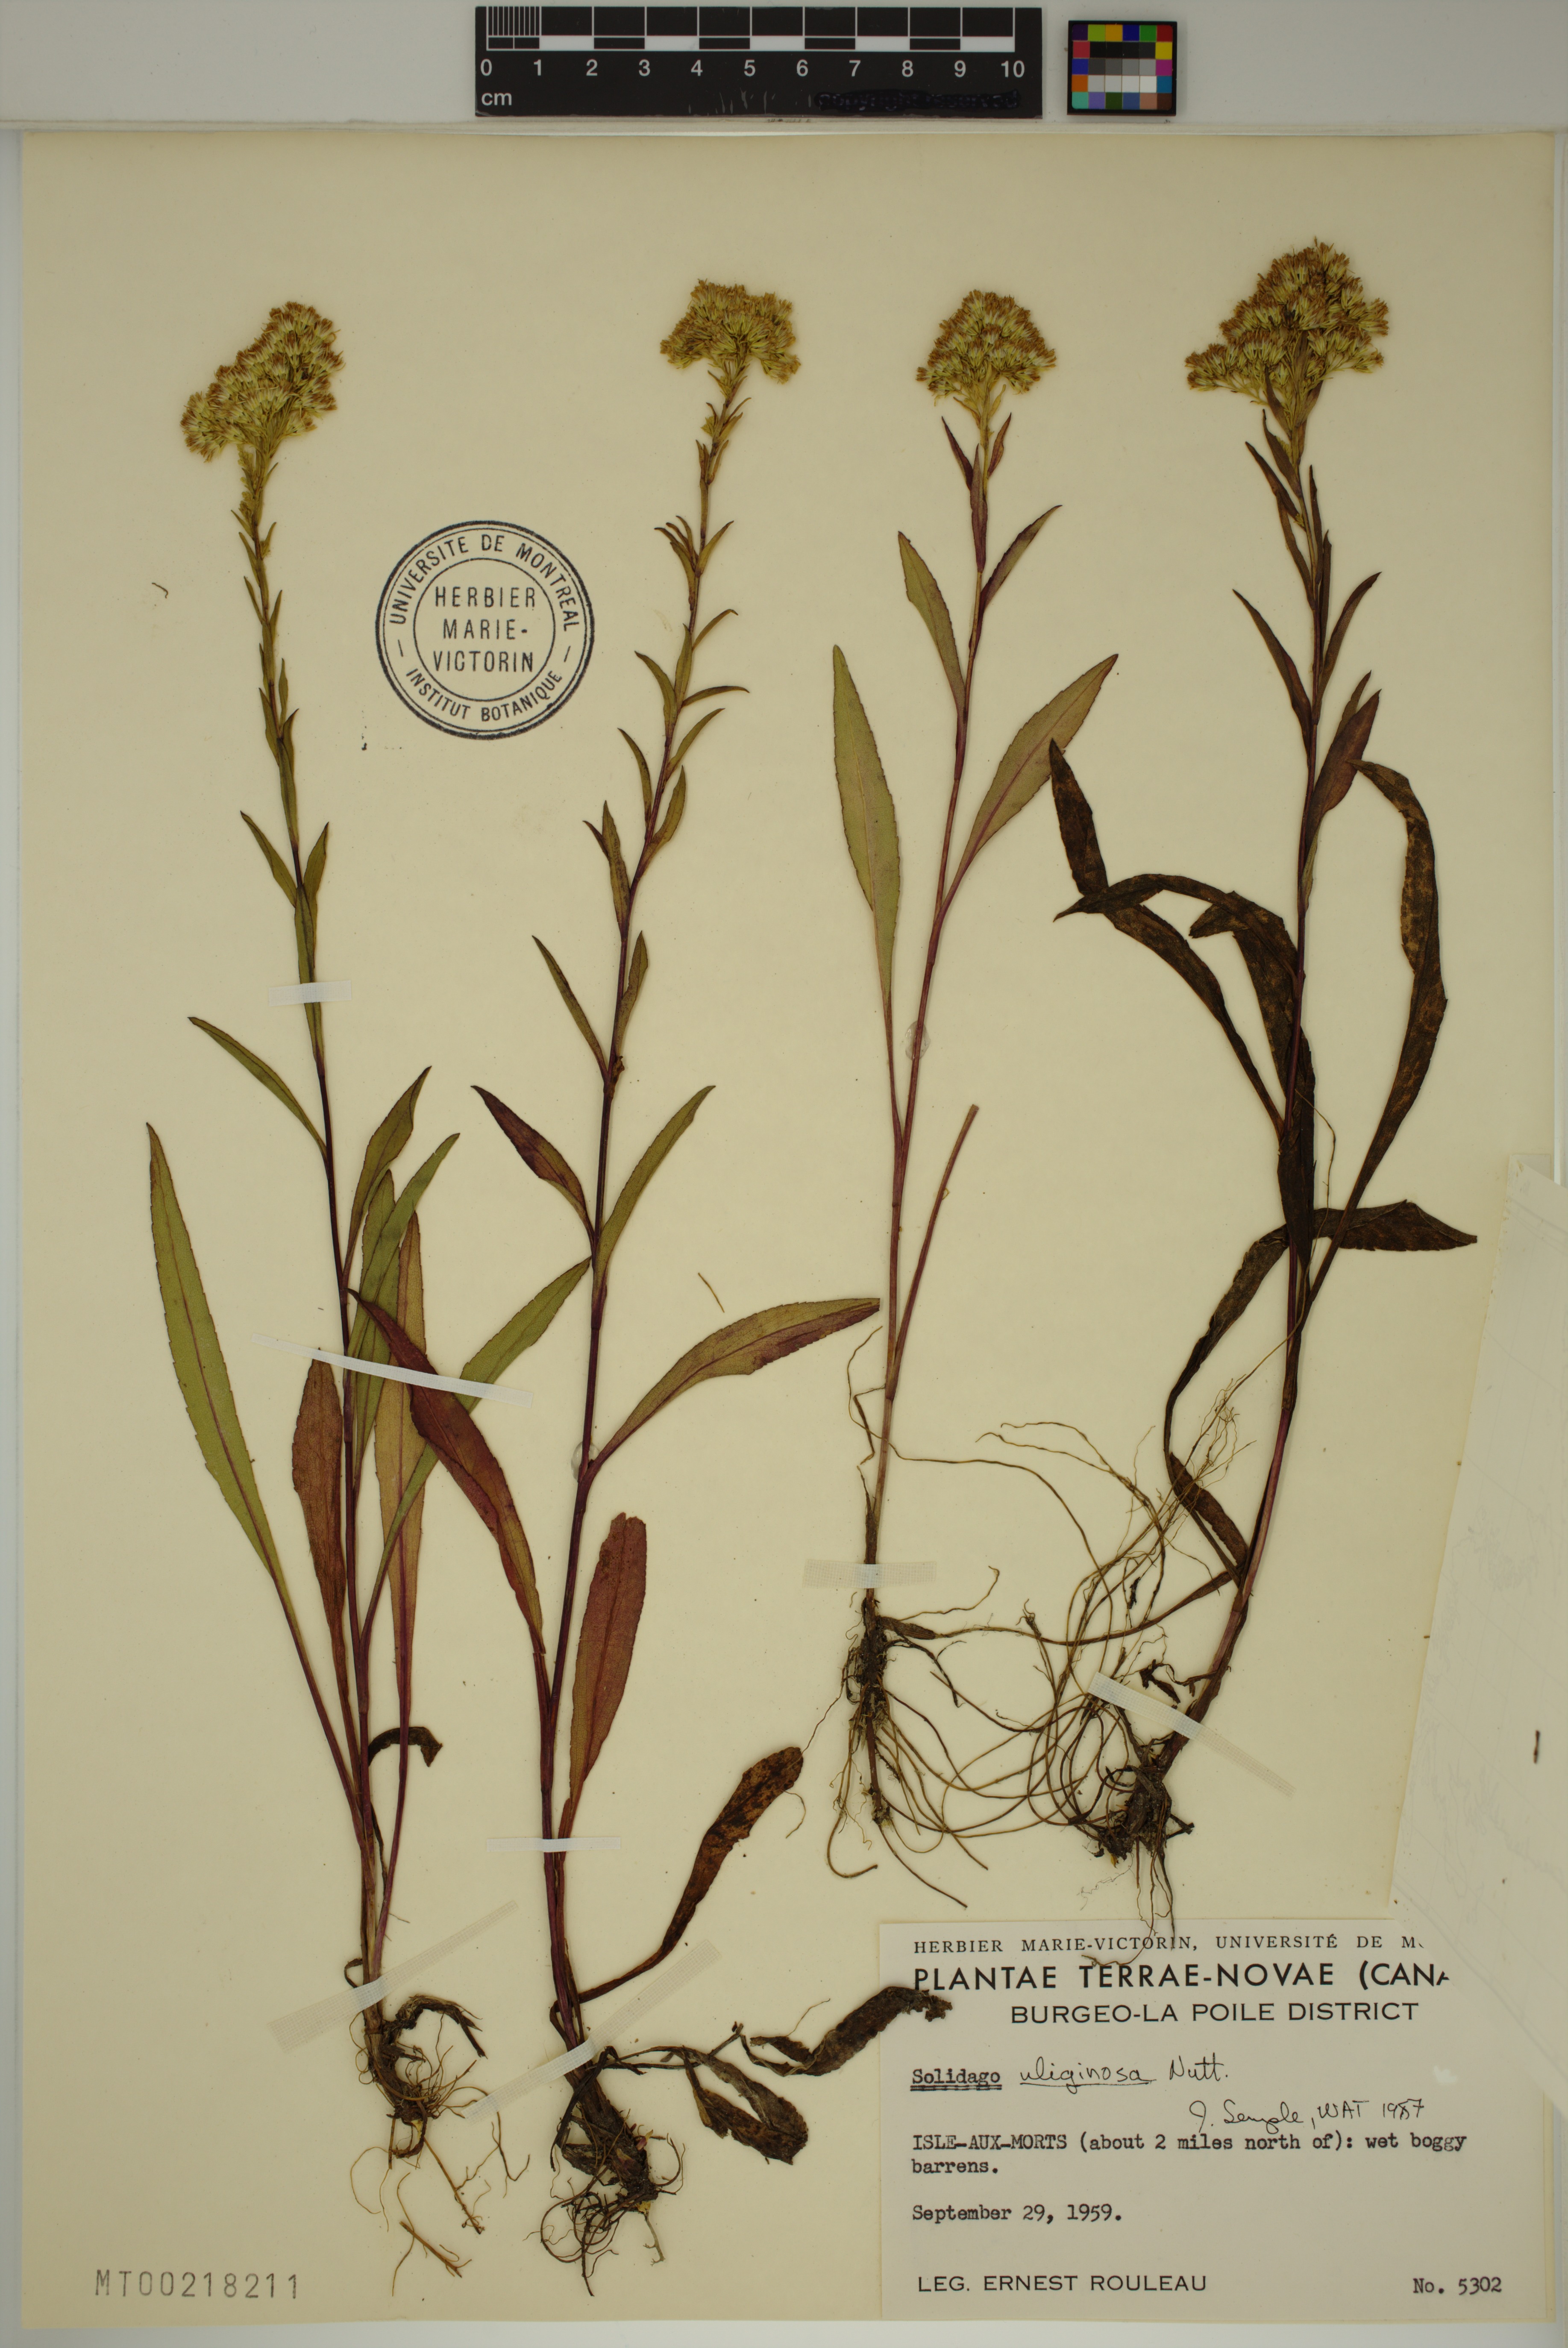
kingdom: Plantae
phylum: Tracheophyta
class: Magnoliopsida
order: Asterales
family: Asteraceae
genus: Solidago
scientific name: Solidago uliginosa
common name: Bog goldenrod
